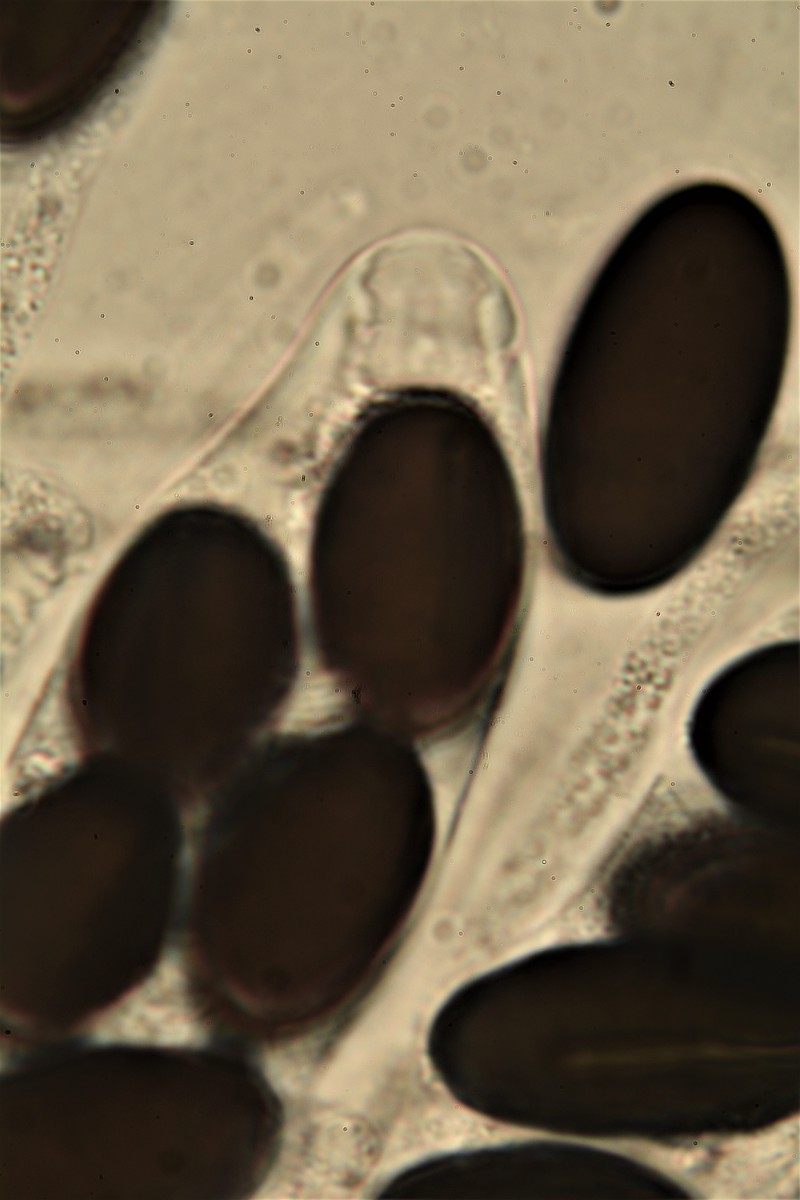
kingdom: Fungi
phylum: Ascomycota
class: Sordariomycetes
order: Xylariales
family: Xylariaceae
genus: Hypocopra
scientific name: Hypocopra brefeldii
